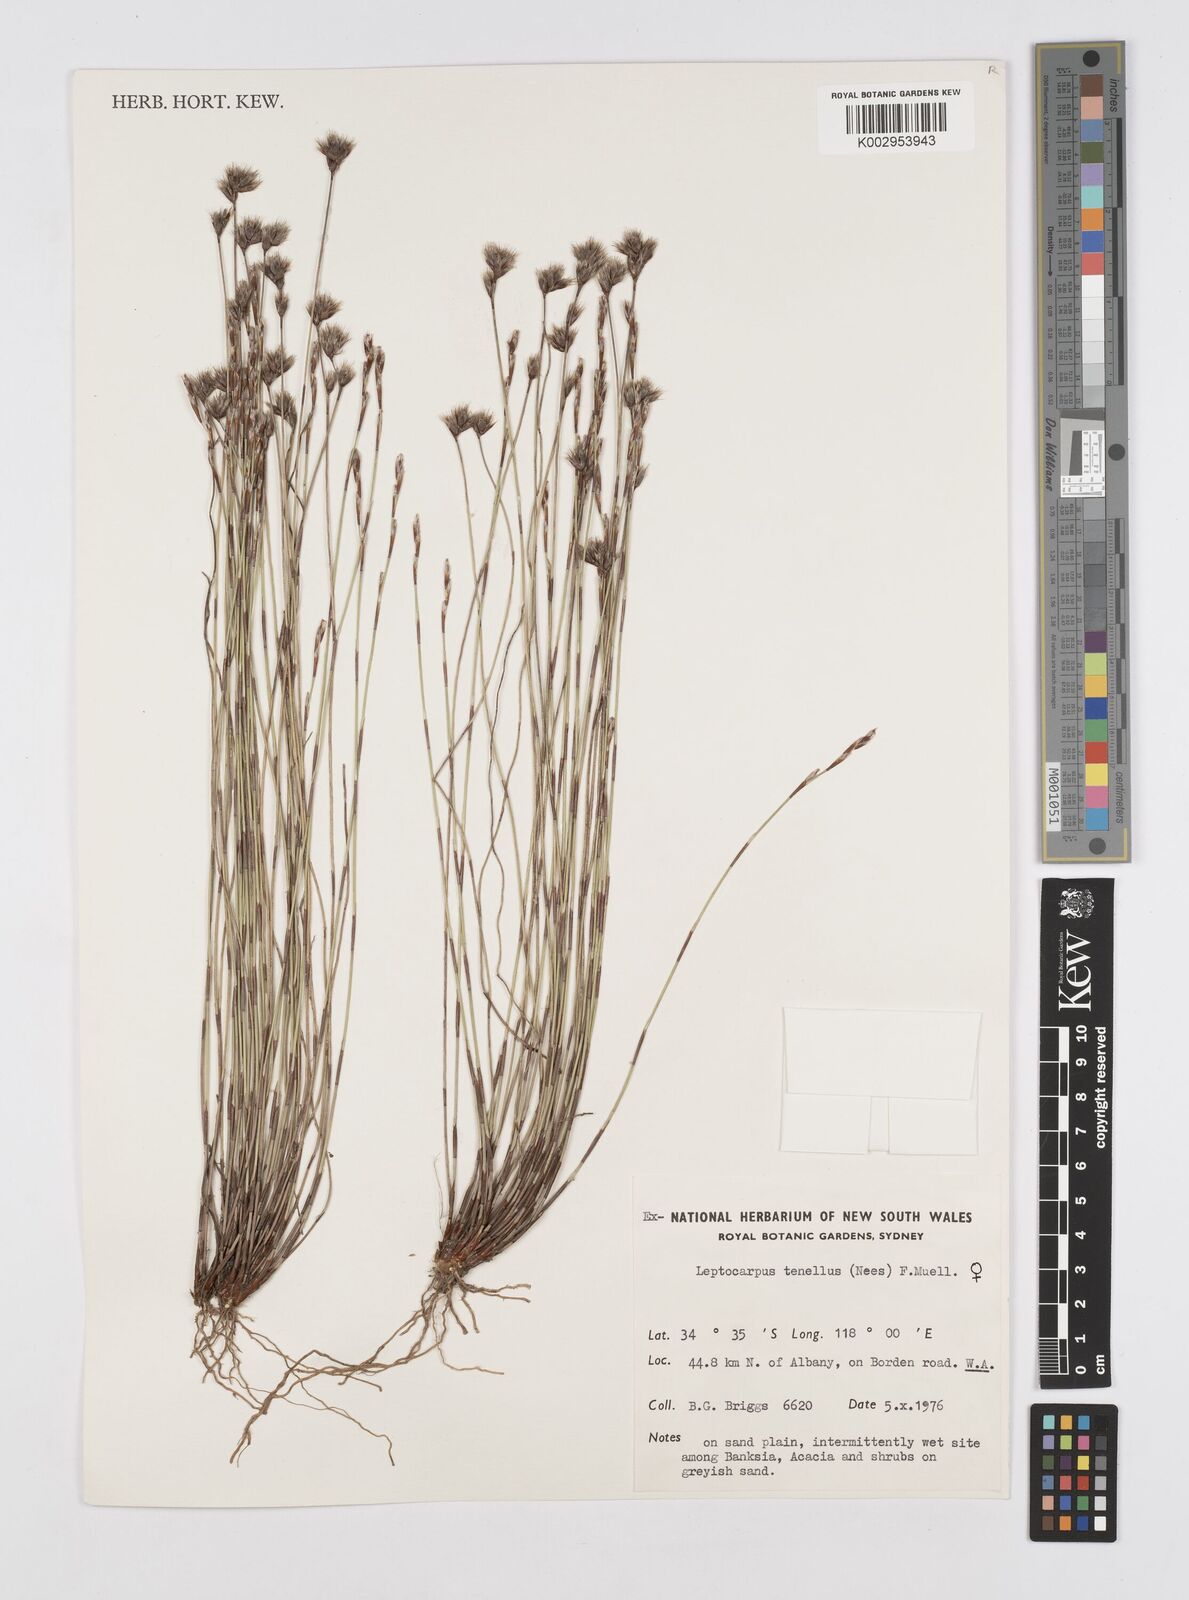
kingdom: Plantae
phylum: Tracheophyta
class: Liliopsida
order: Poales
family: Restionaceae
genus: Chaetanthus
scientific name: Chaetanthus tenellus
